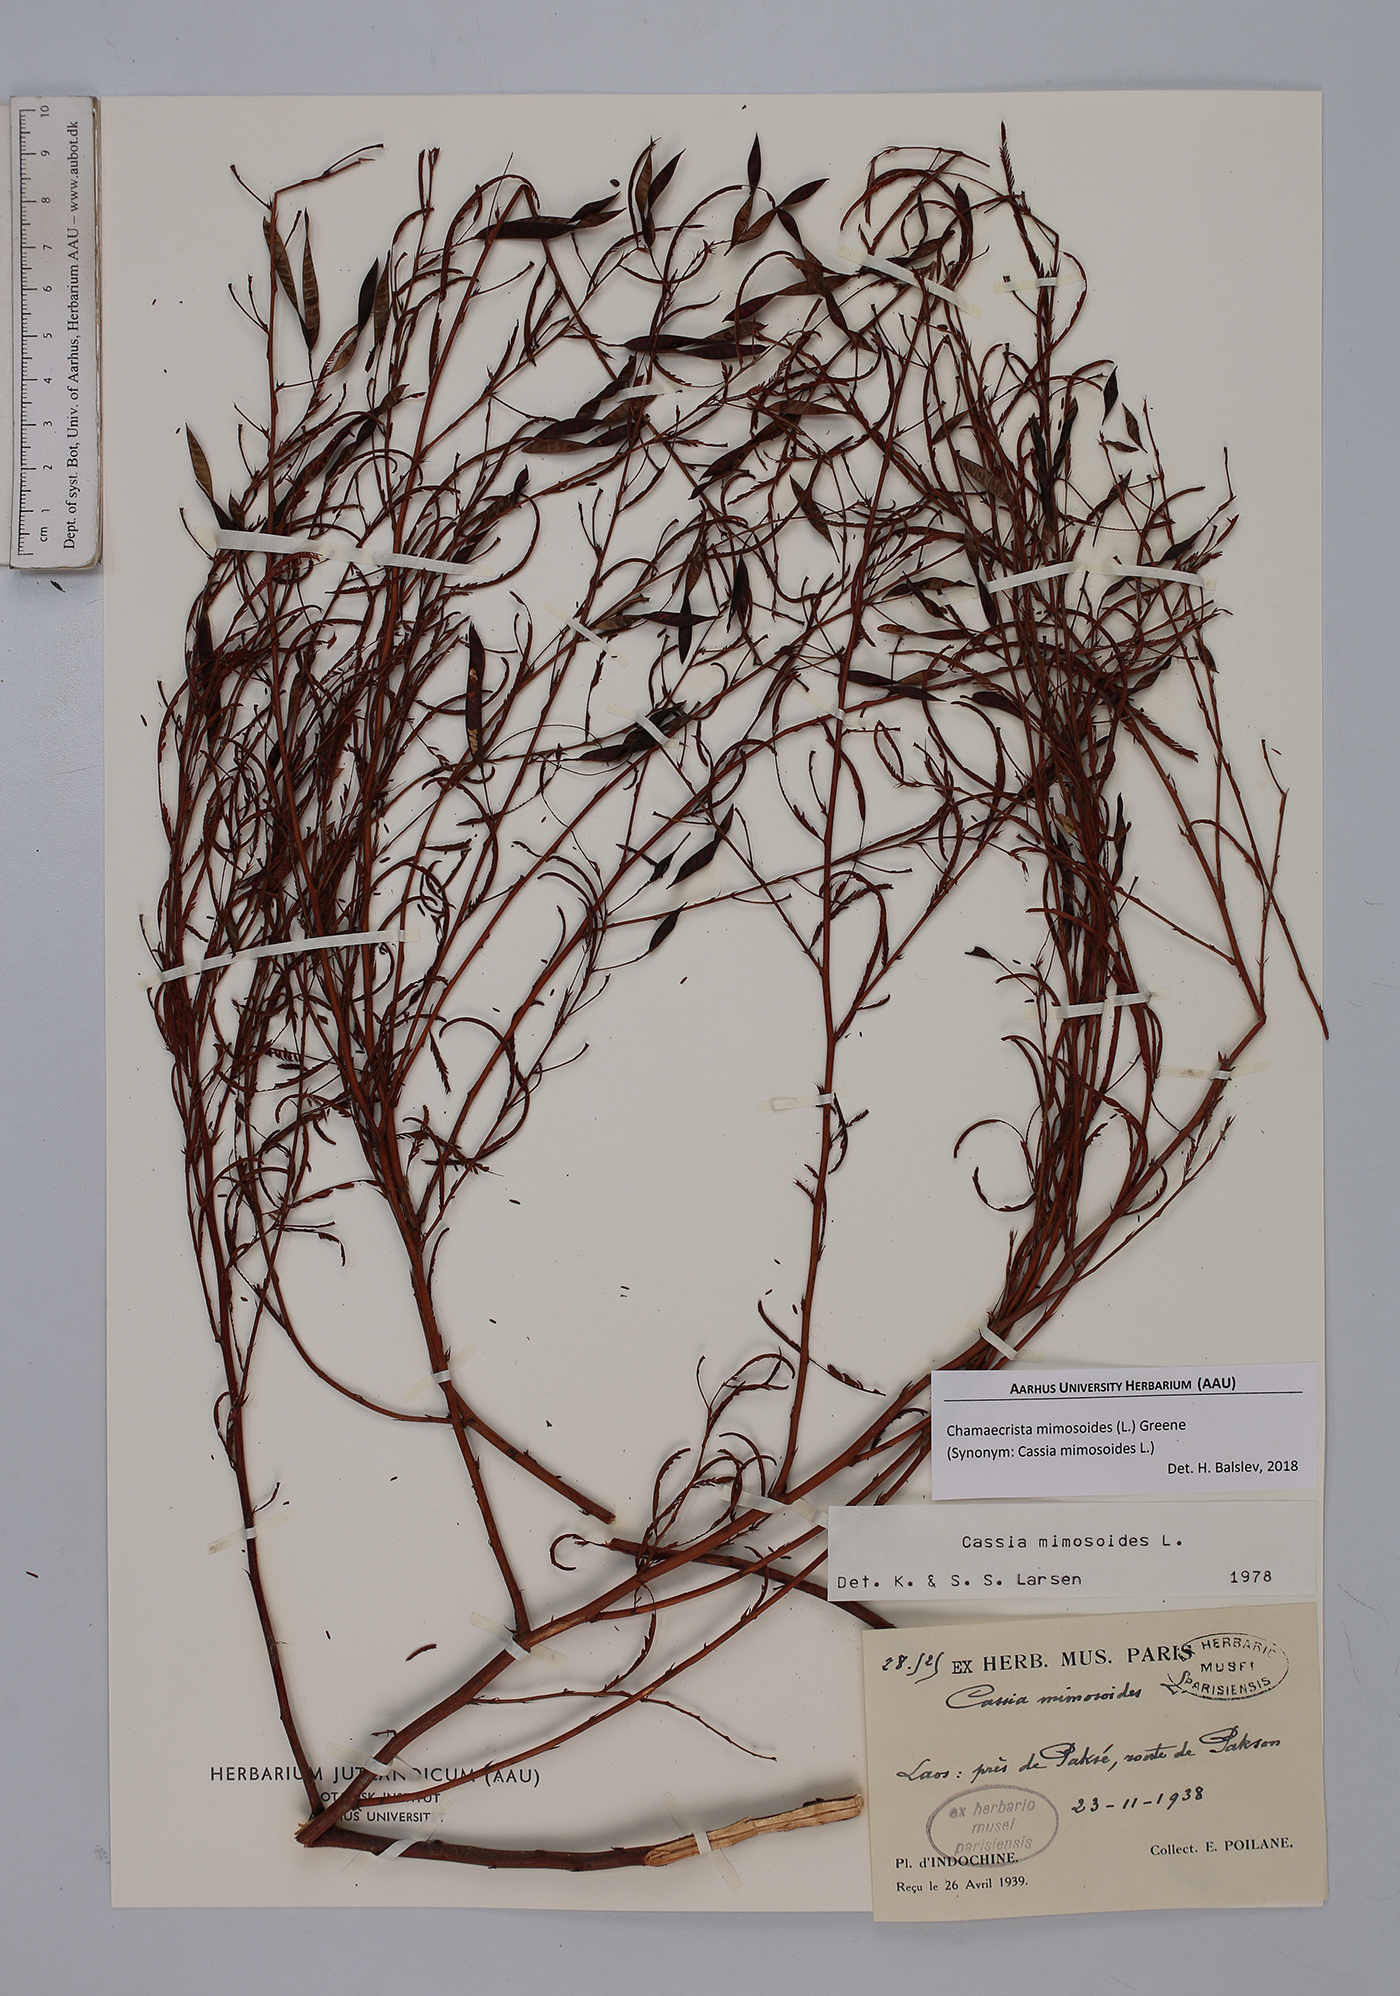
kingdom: Plantae
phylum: Tracheophyta
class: Magnoliopsida
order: Fabales
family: Fabaceae
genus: Chamaecrista
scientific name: Chamaecrista mimosoides
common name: Fish-bone cassia
